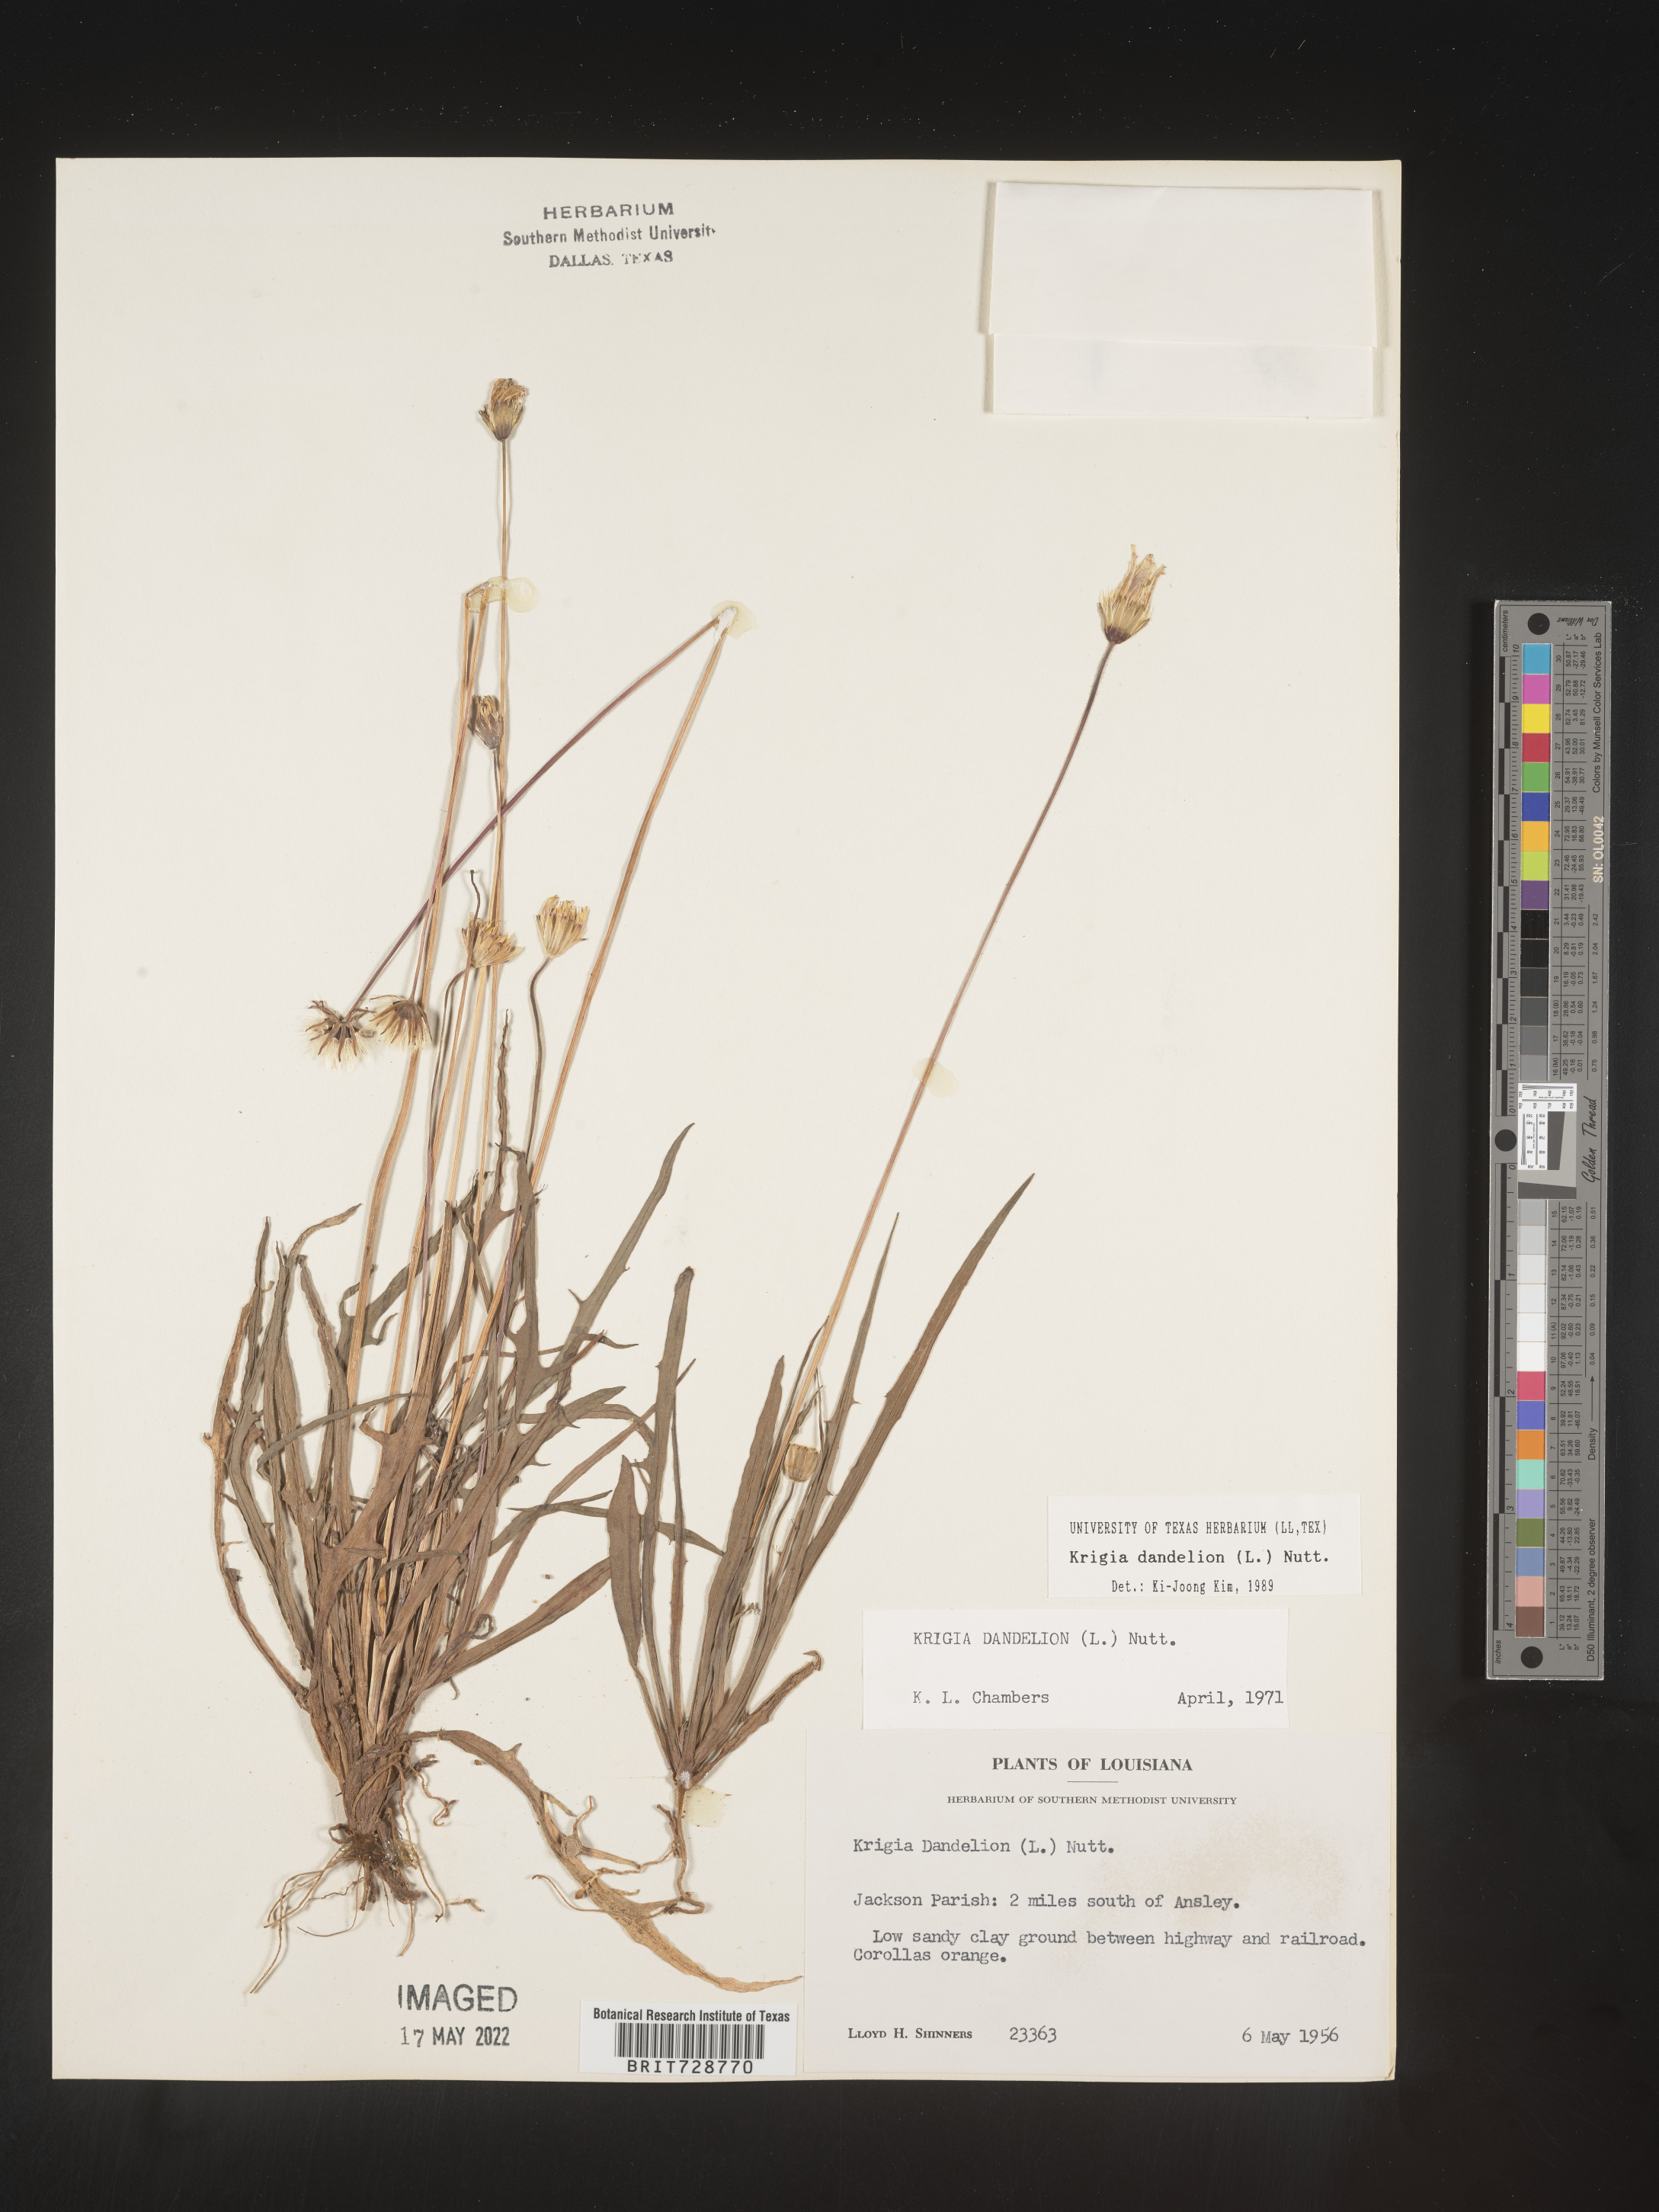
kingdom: Plantae
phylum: Tracheophyta
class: Magnoliopsida
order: Asterales
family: Asteraceae
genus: Krigia
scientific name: Krigia dandelion
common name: Colonial dwarf-dandelion
